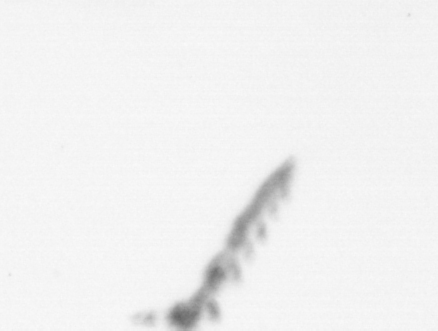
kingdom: Chromista
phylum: Ochrophyta
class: Bacillariophyceae
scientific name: Bacillariophyceae
